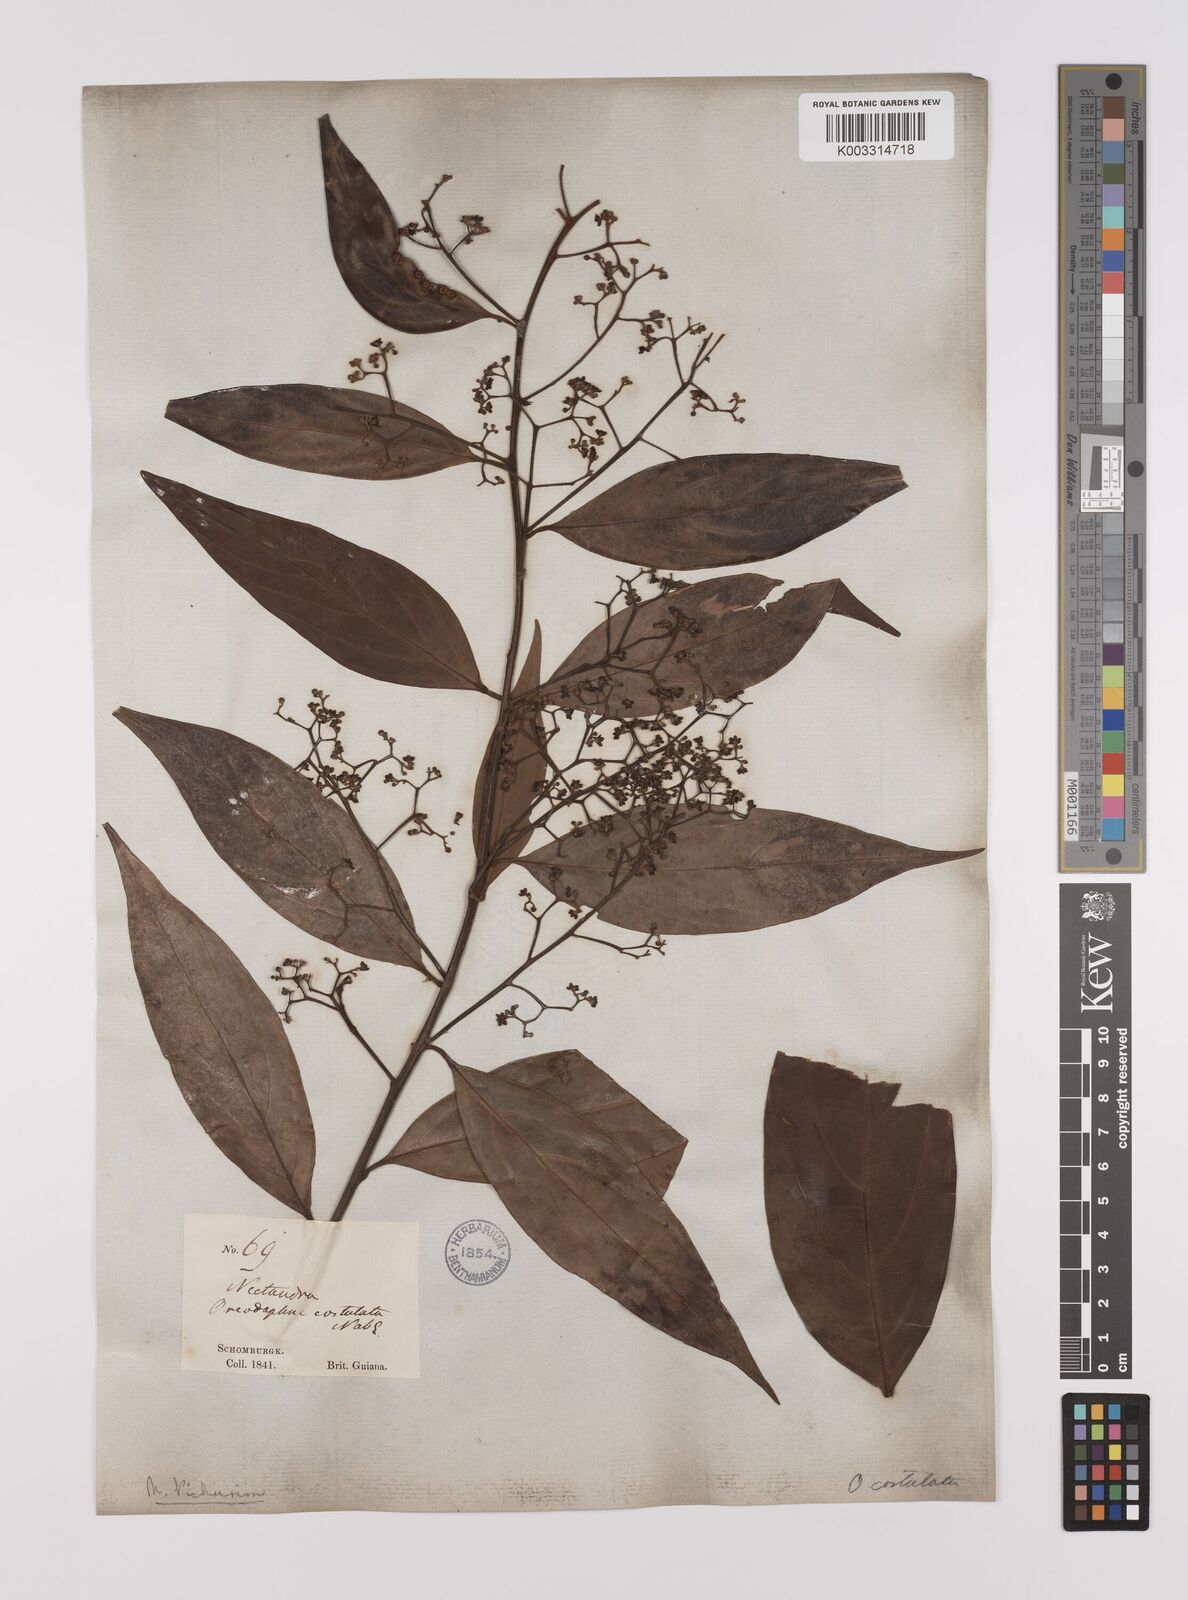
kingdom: Plantae
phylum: Tracheophyta
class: Magnoliopsida
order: Laurales
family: Lauraceae
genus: Nectandra
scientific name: Nectandra cuspidata
